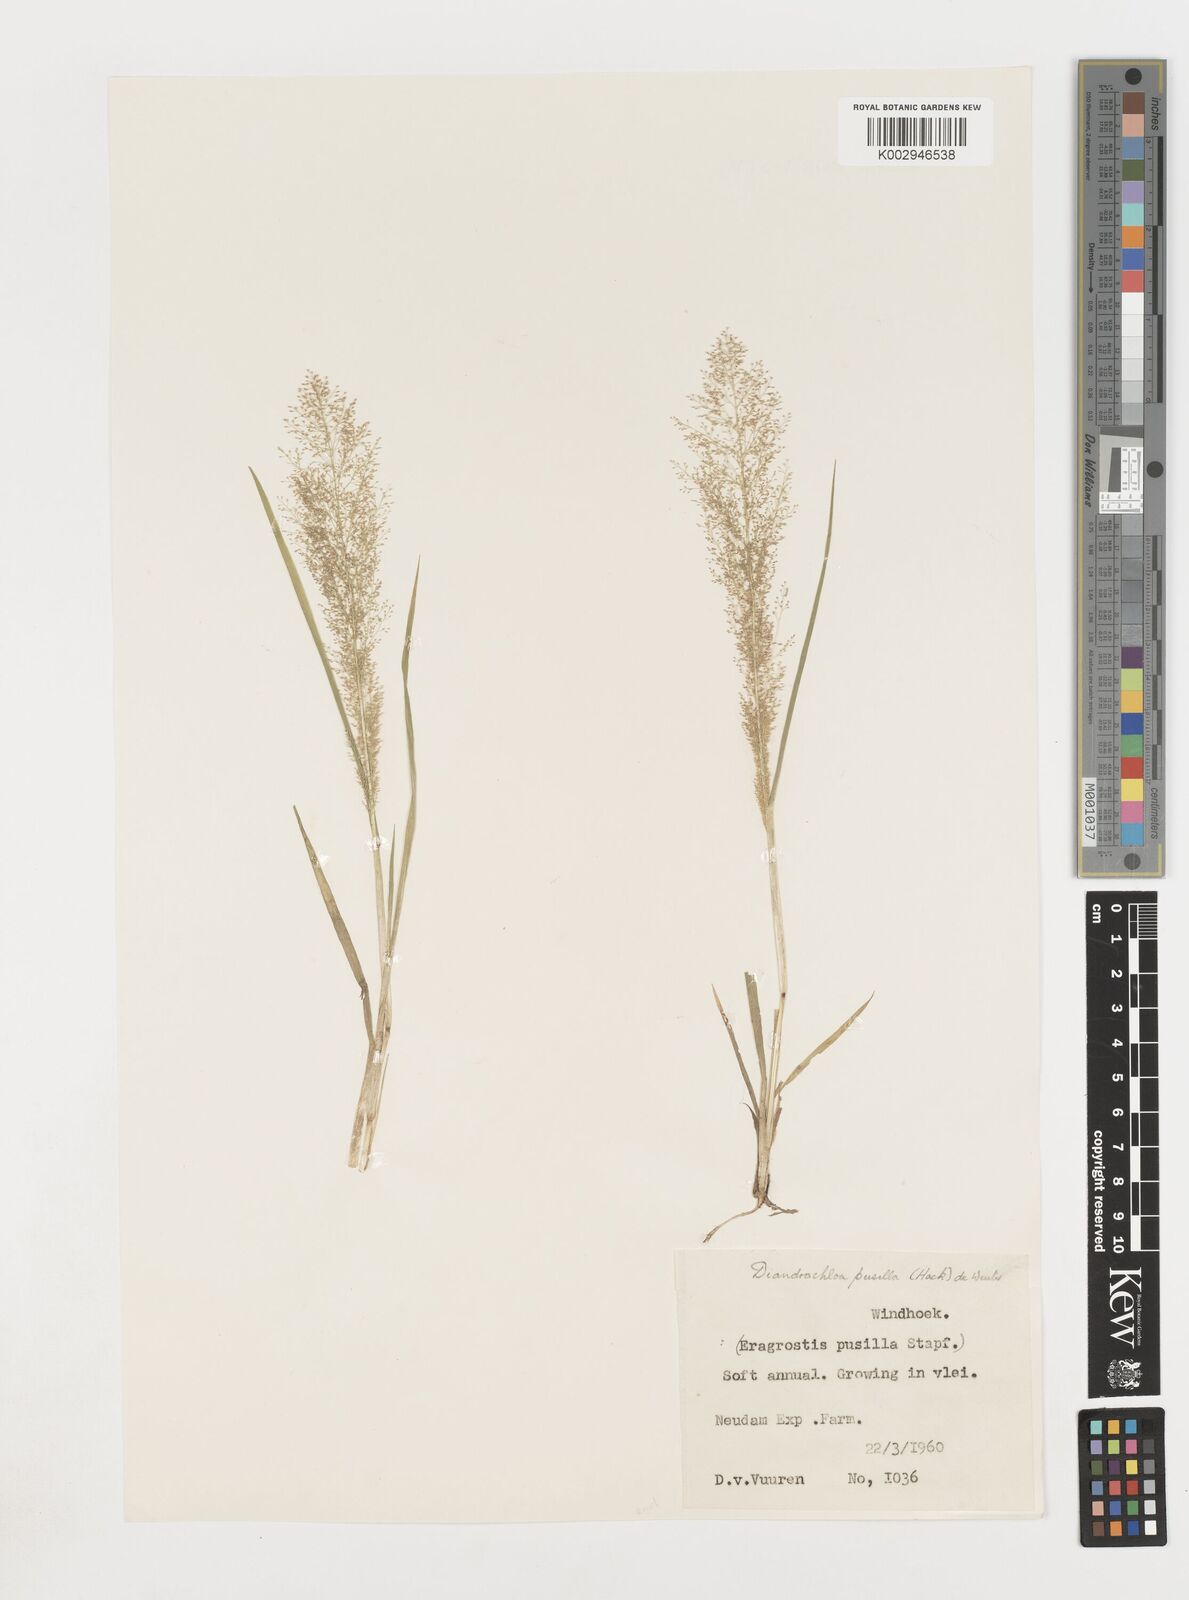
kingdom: Plantae
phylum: Tracheophyta
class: Liliopsida
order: Poales
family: Poaceae
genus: Eragrostis
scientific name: Eragrostis pusilla
